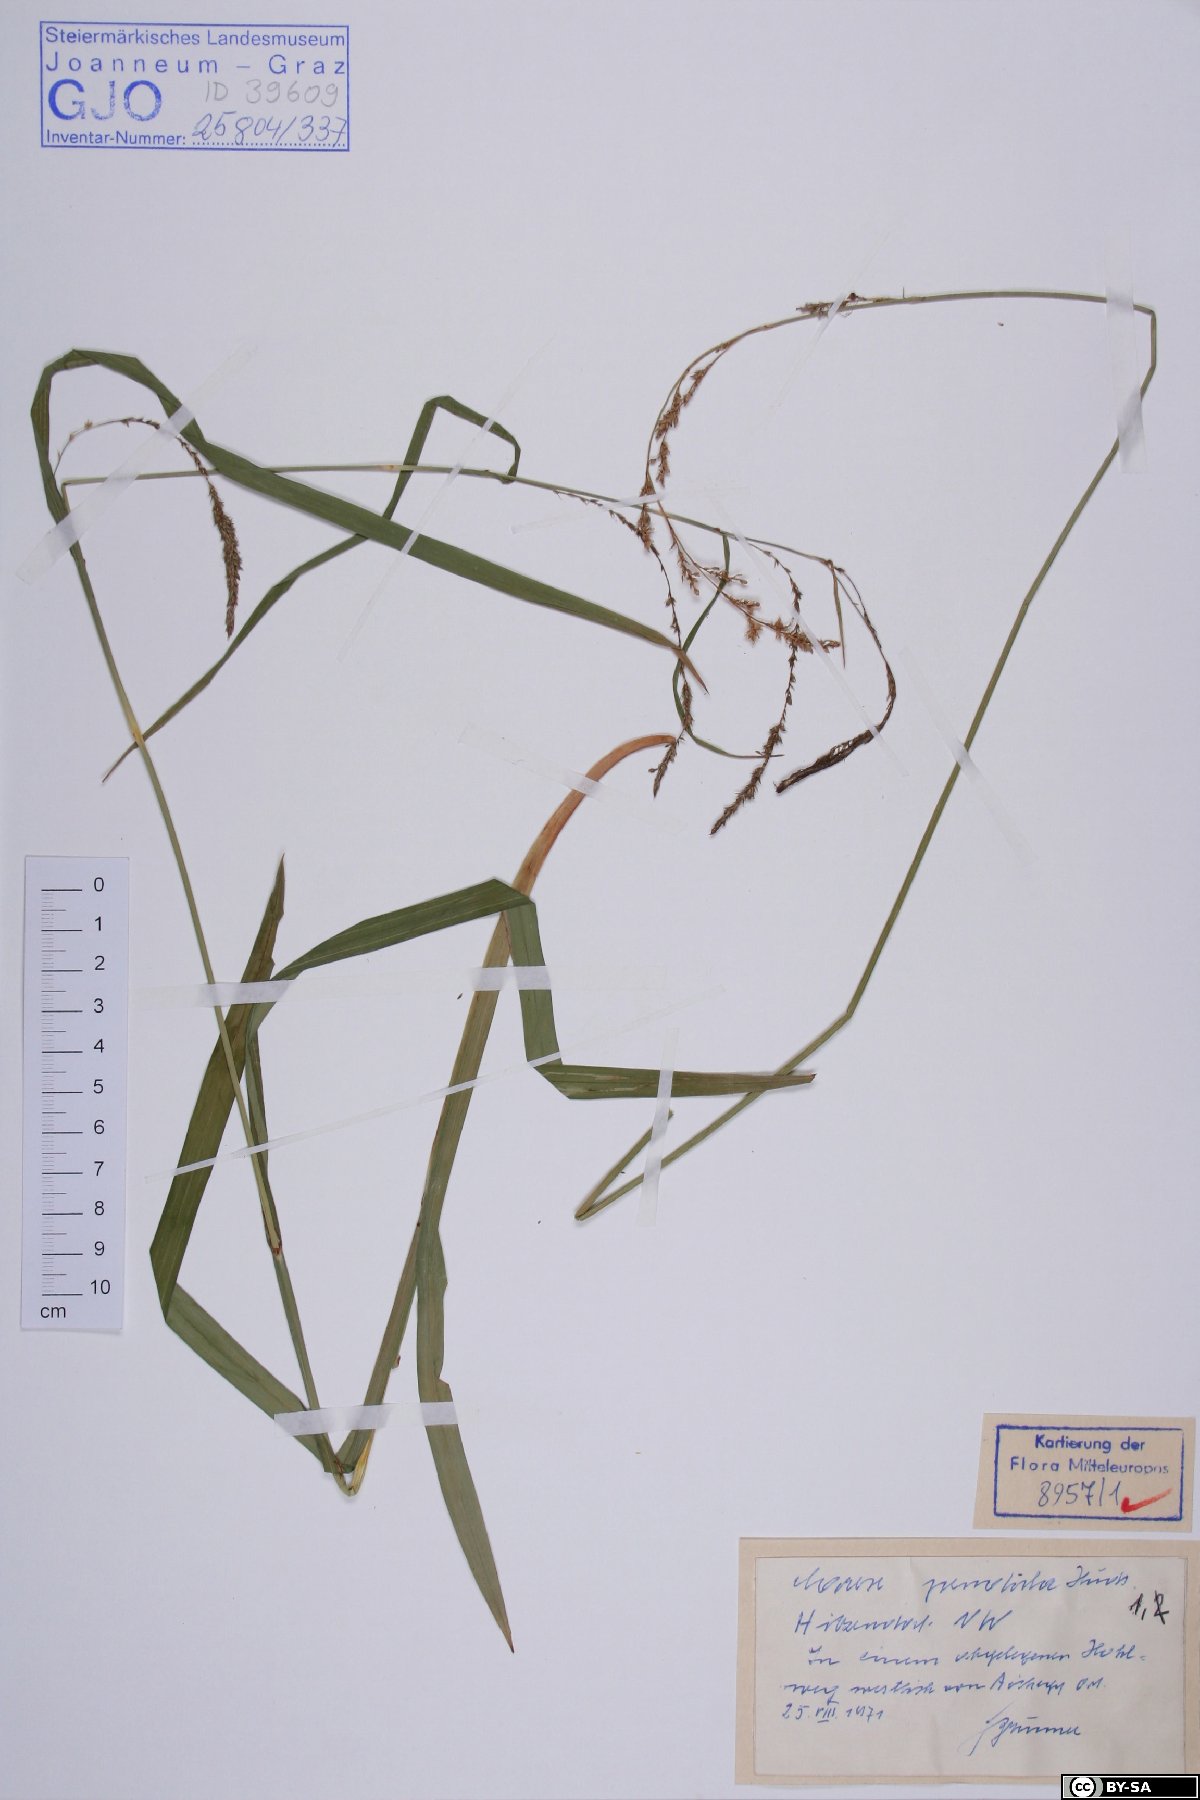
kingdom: Plantae
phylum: Tracheophyta
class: Liliopsida
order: Poales
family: Cyperaceae
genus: Carex
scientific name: Carex pendula
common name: Pendulous sedge
